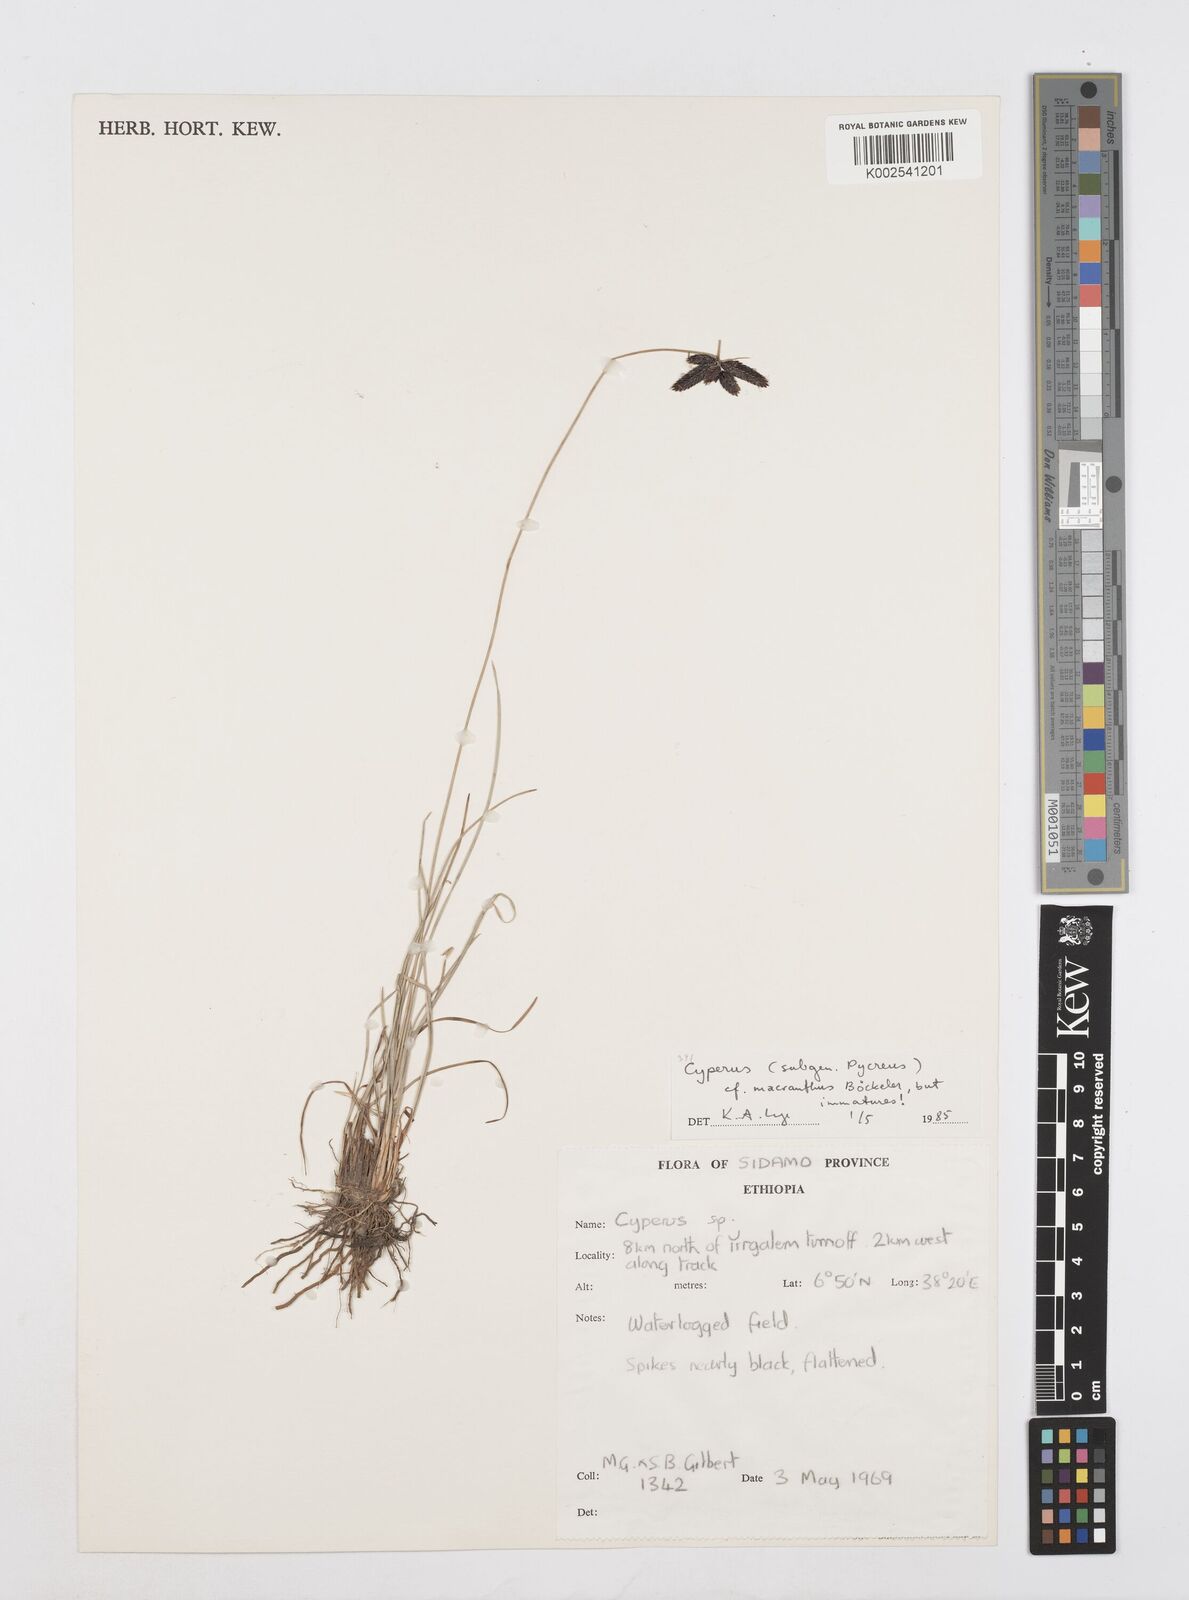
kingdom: Plantae
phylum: Tracheophyta
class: Liliopsida
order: Poales
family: Cyperaceae
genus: Cyperus
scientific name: Cyperus nigricans
